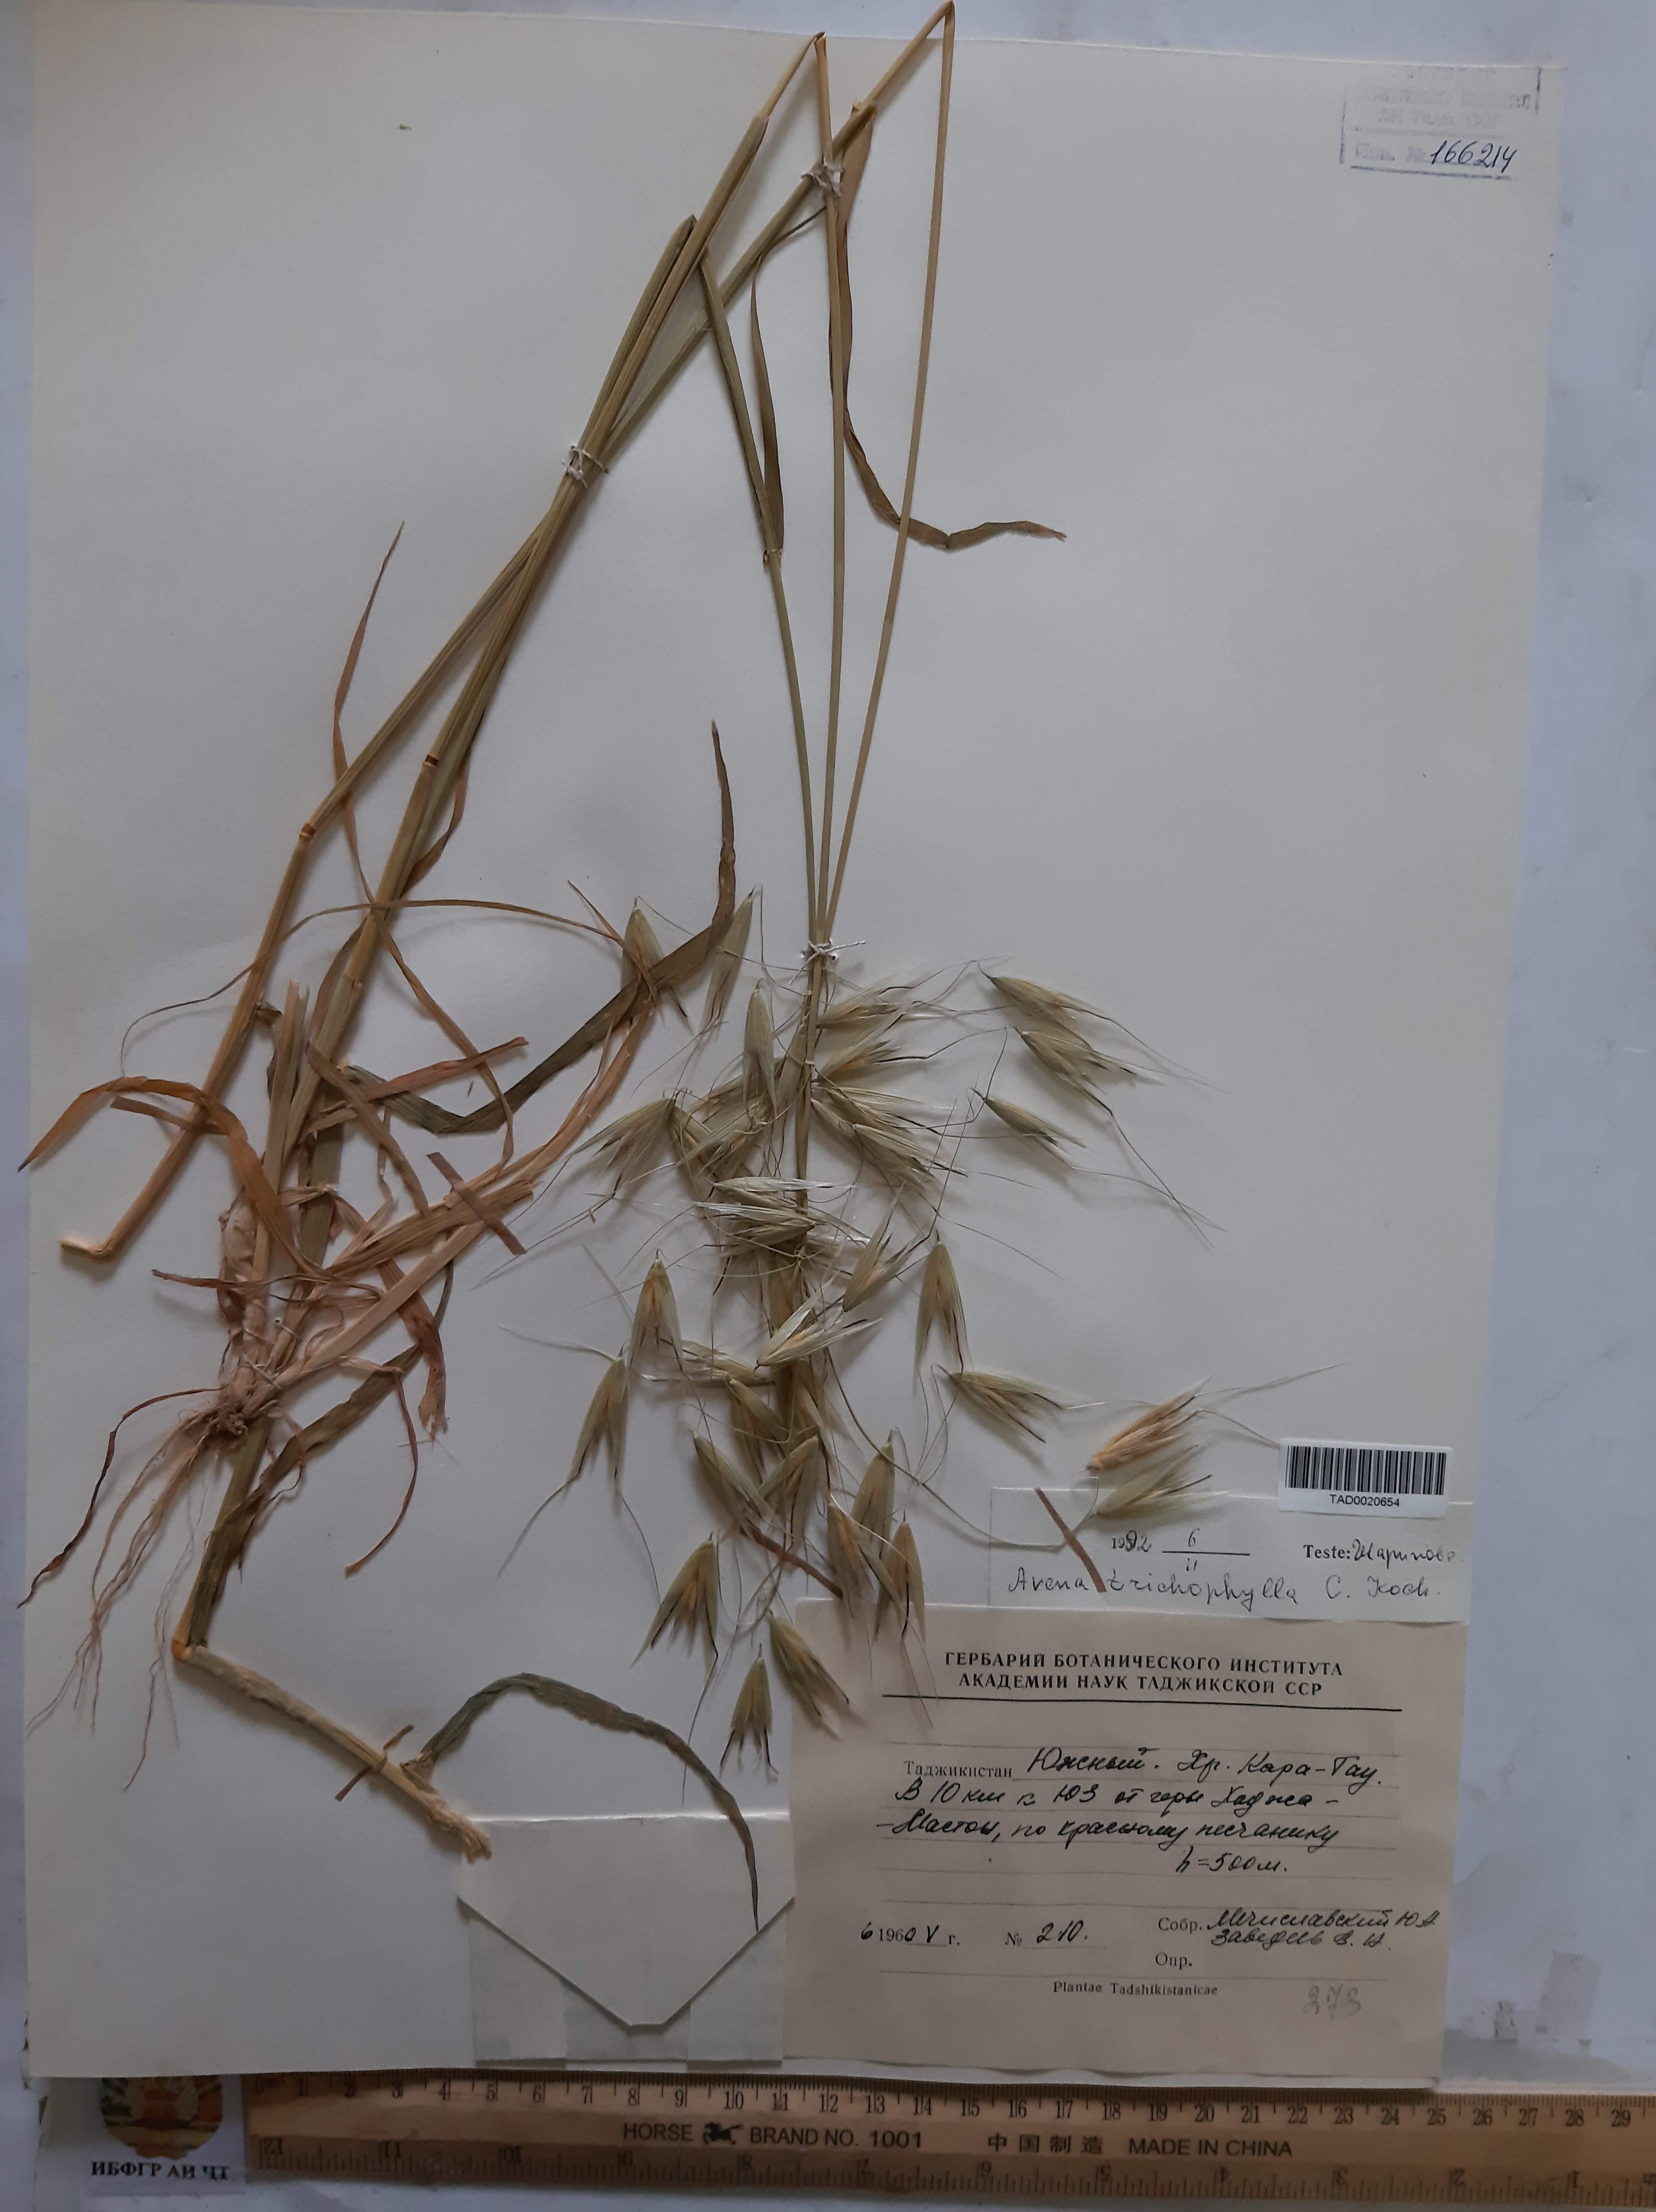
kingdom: Plantae
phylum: Tracheophyta
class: Liliopsida
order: Poales
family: Poaceae
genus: Avena
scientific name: Avena sterilis
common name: Animated oat
